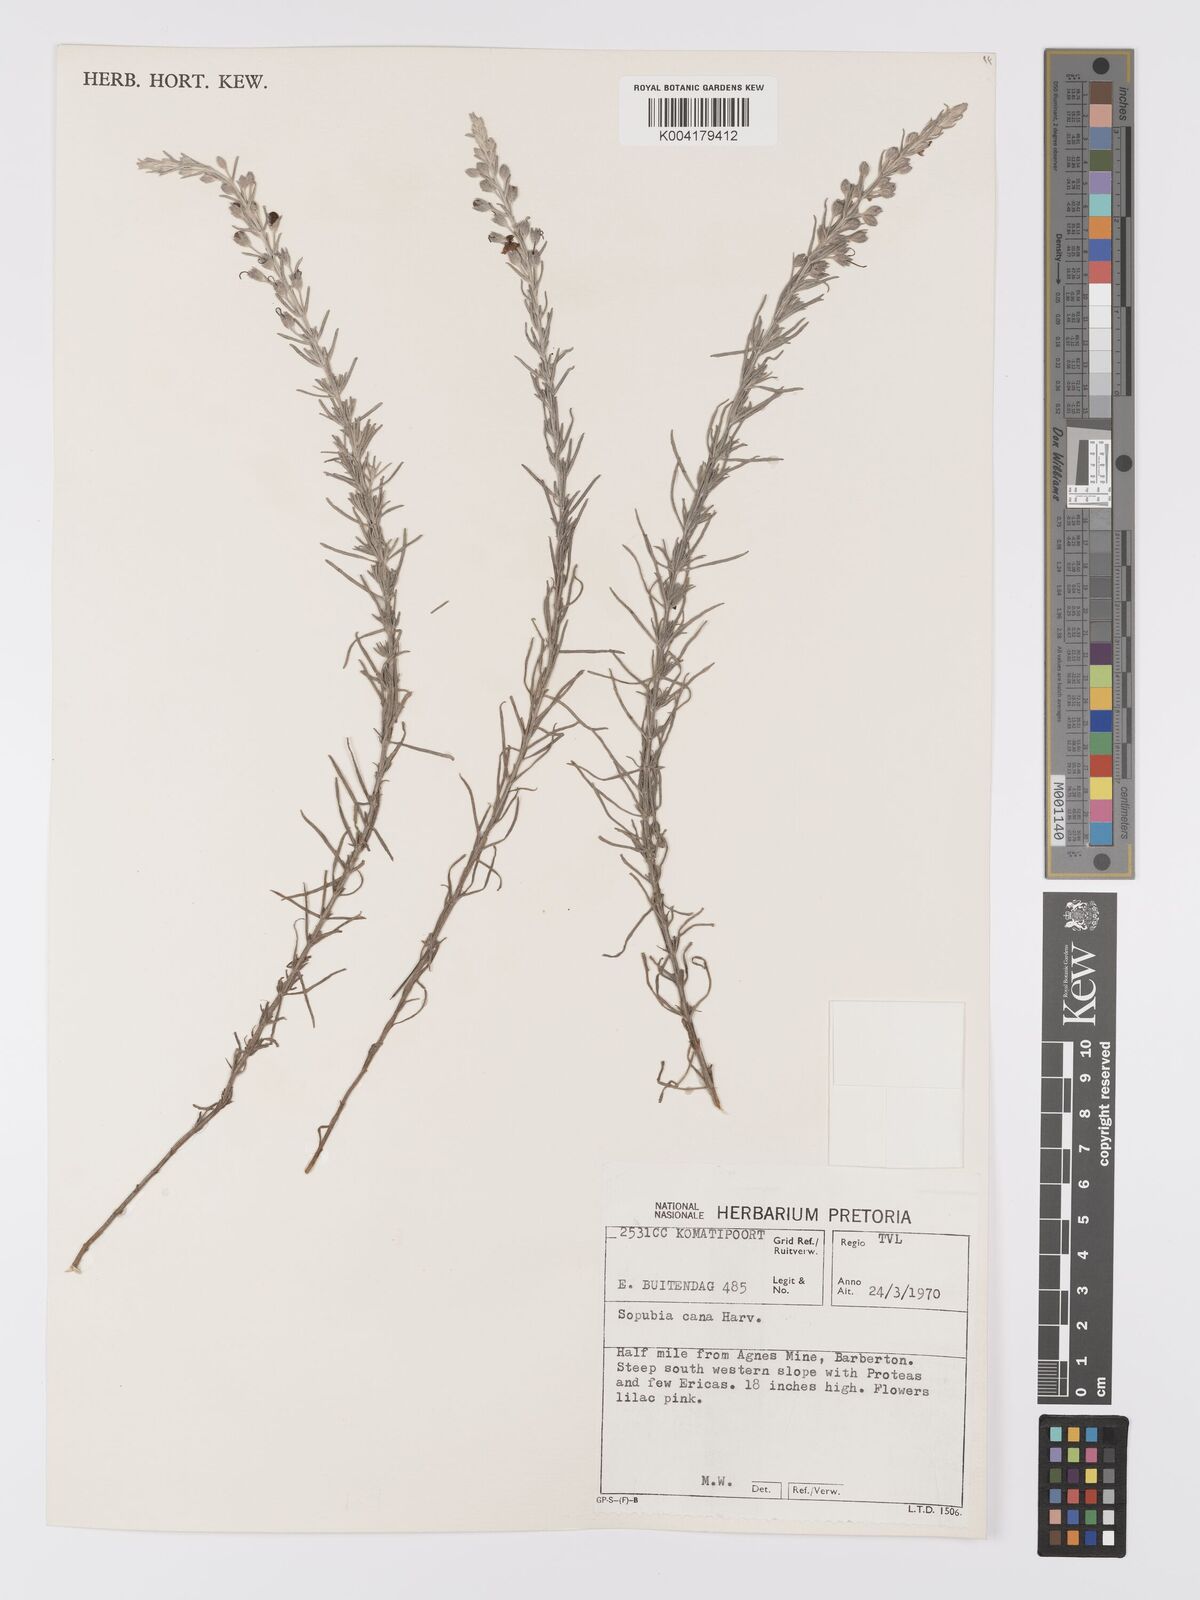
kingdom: Plantae
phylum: Tracheophyta
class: Magnoliopsida
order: Lamiales
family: Orobanchaceae
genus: Sopubia
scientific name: Sopubia cana
